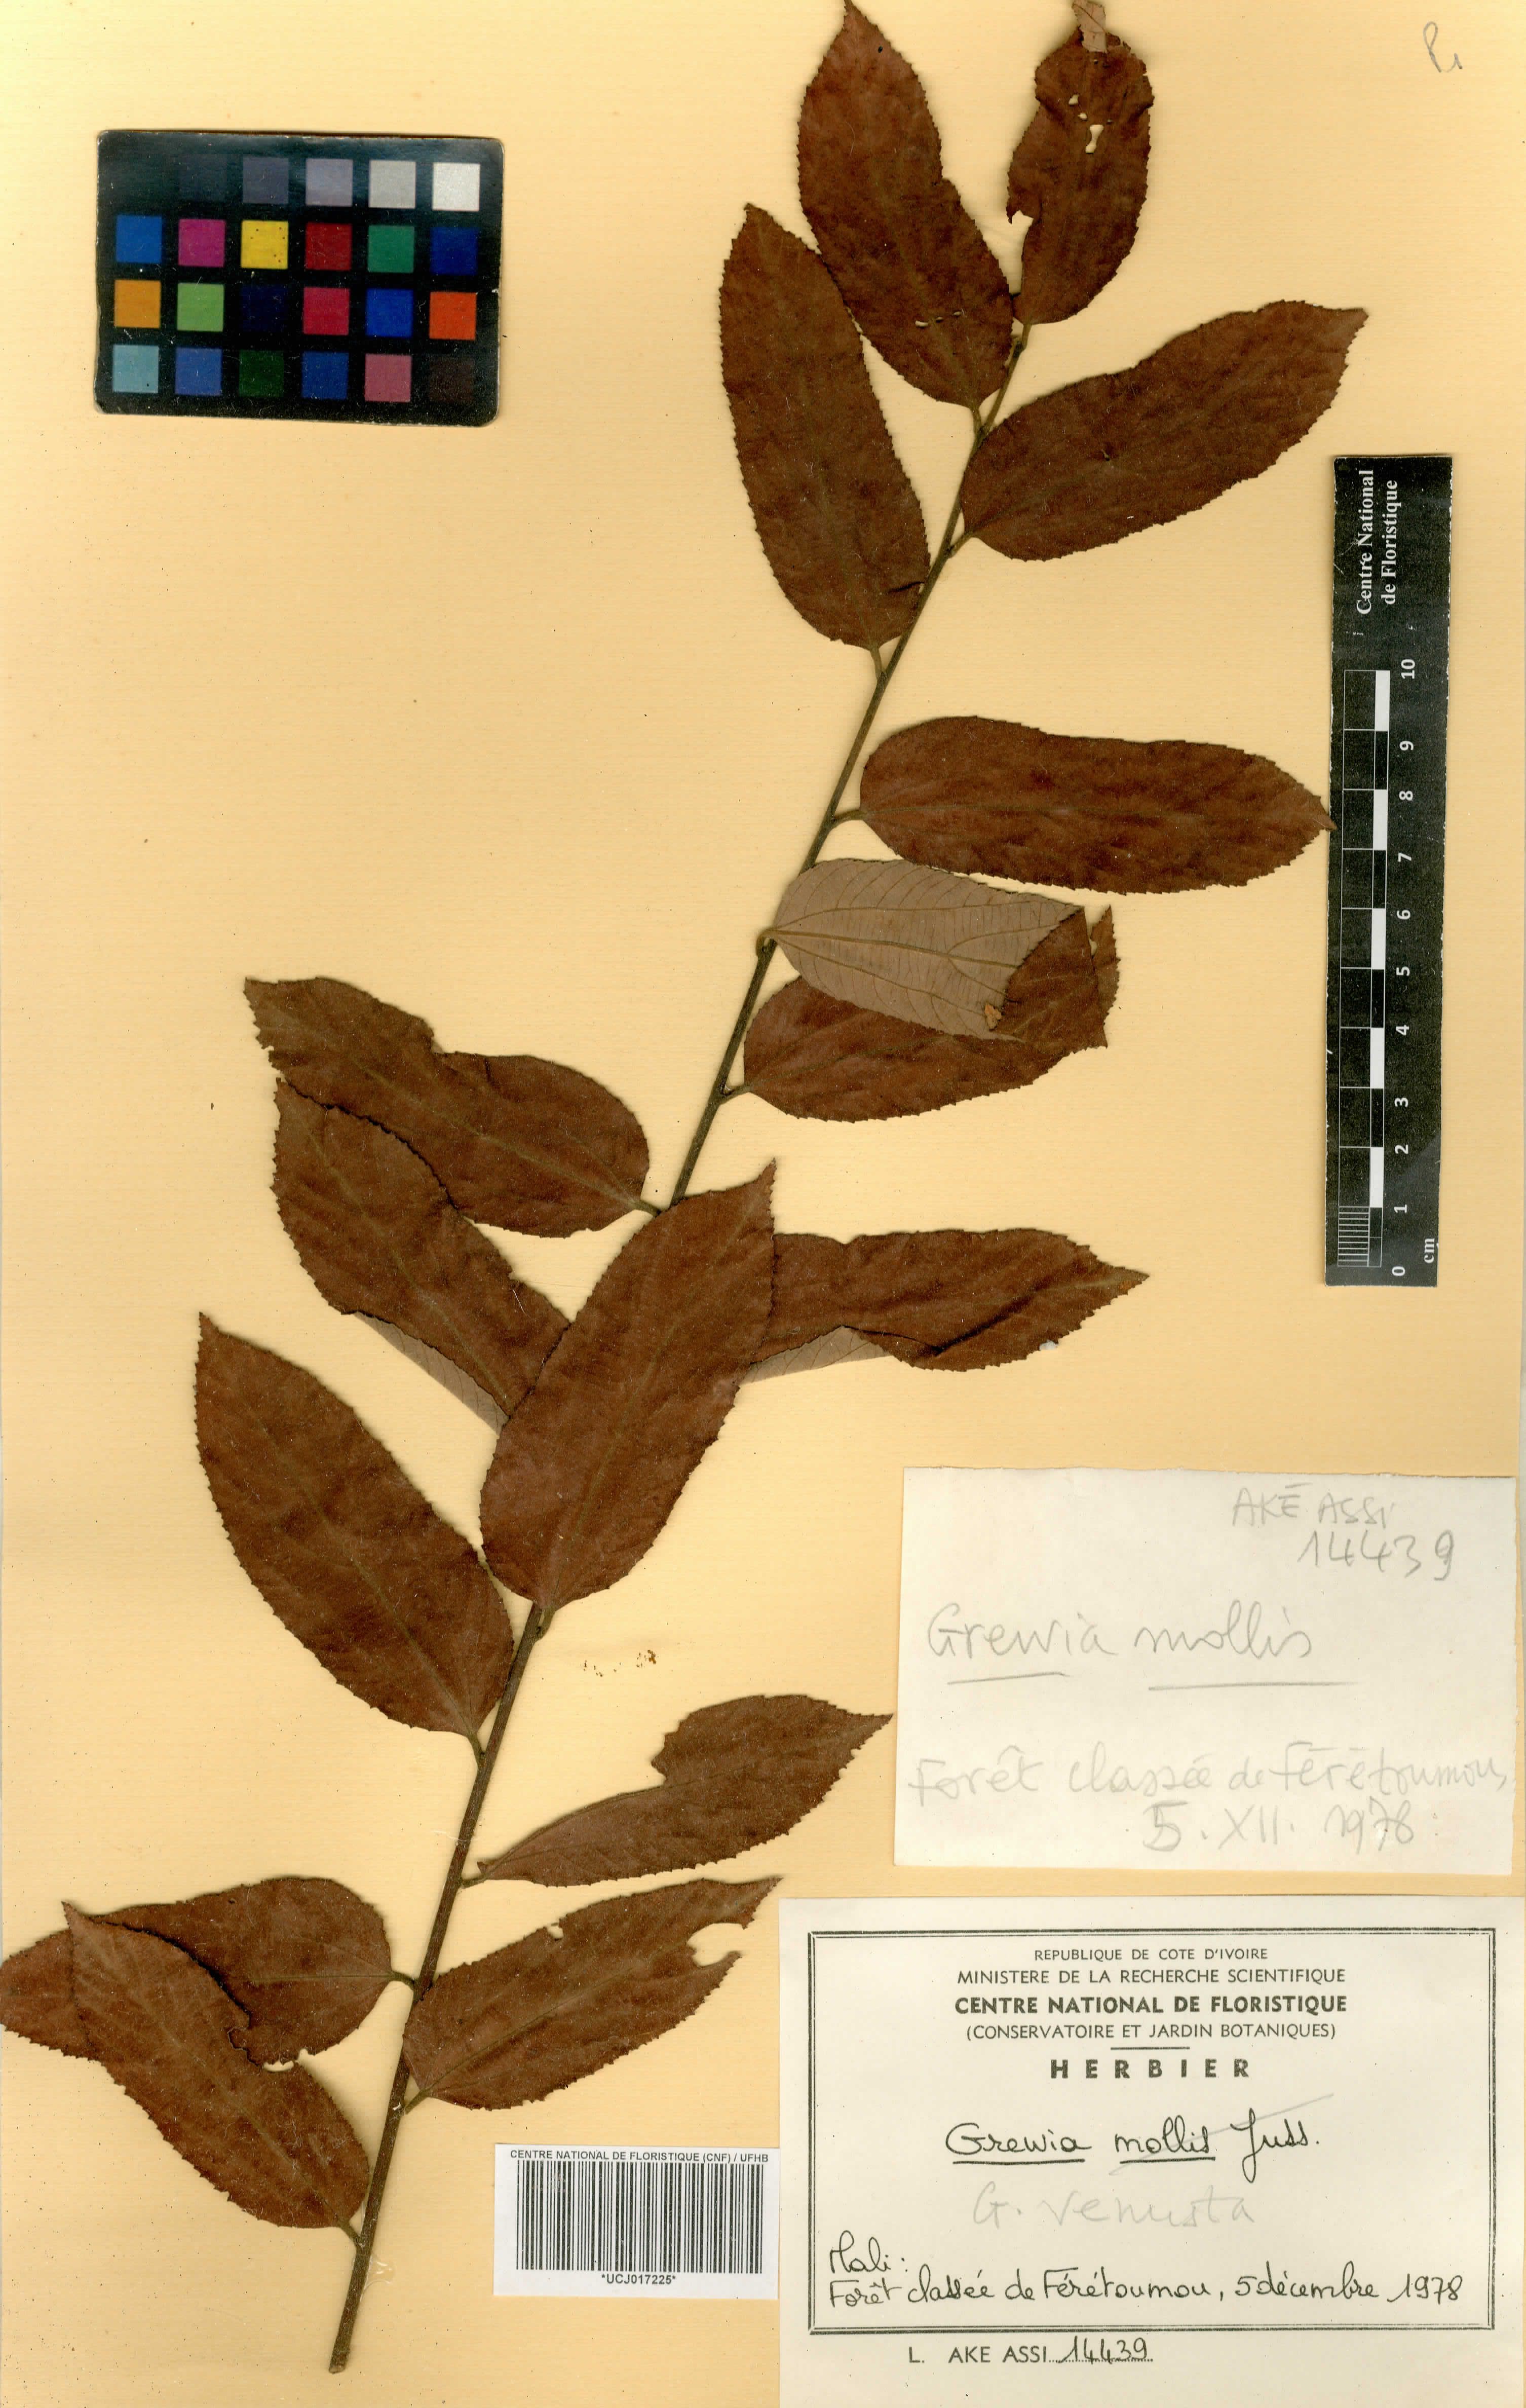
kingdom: Plantae
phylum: Tracheophyta
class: Magnoliopsida
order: Malvales
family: Malvaceae
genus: Grewia
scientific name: Grewia mollis
